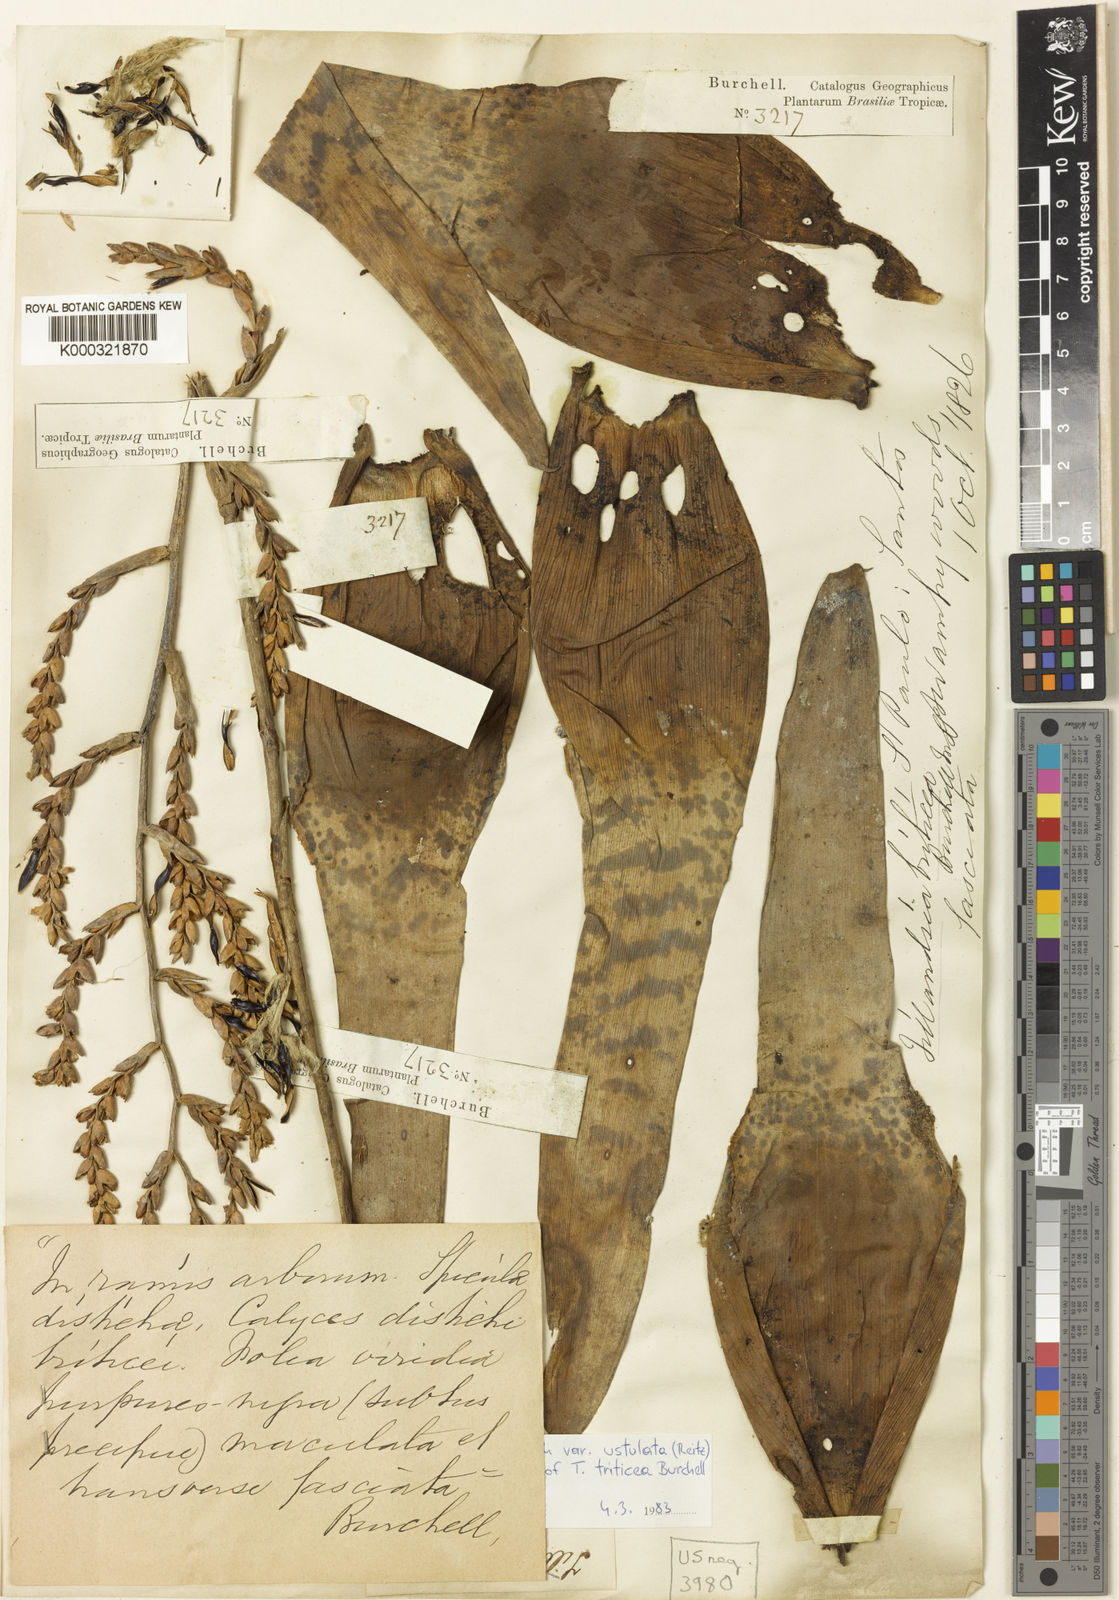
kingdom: Plantae
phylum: Tracheophyta
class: Liliopsida
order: Poales
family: Bromeliaceae
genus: Racinaea
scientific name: Racinaea spiculosa
